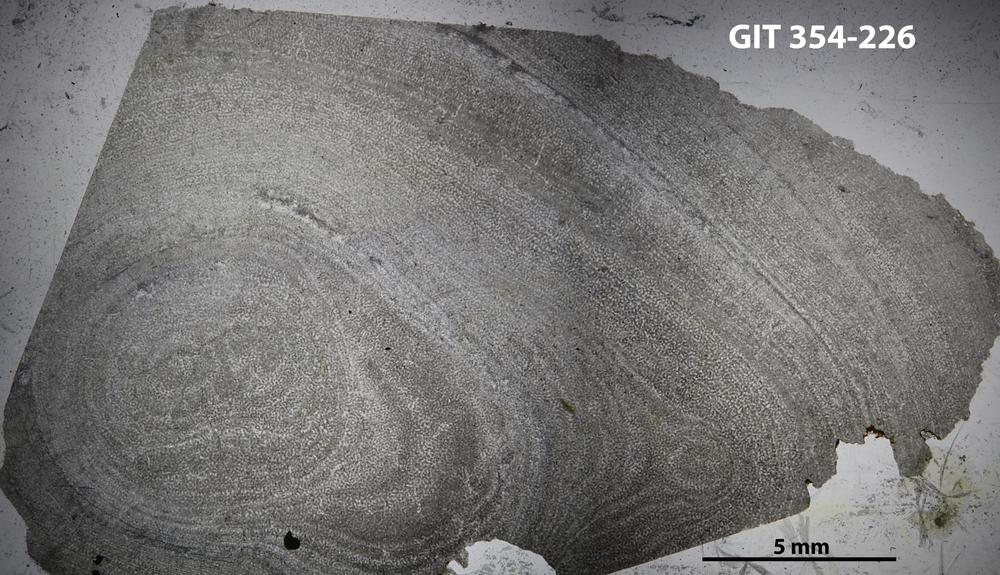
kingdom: Animalia
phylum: Porifera
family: Clathrodictyidae
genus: Clathrodictyon
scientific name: Clathrodictyon lennuki
